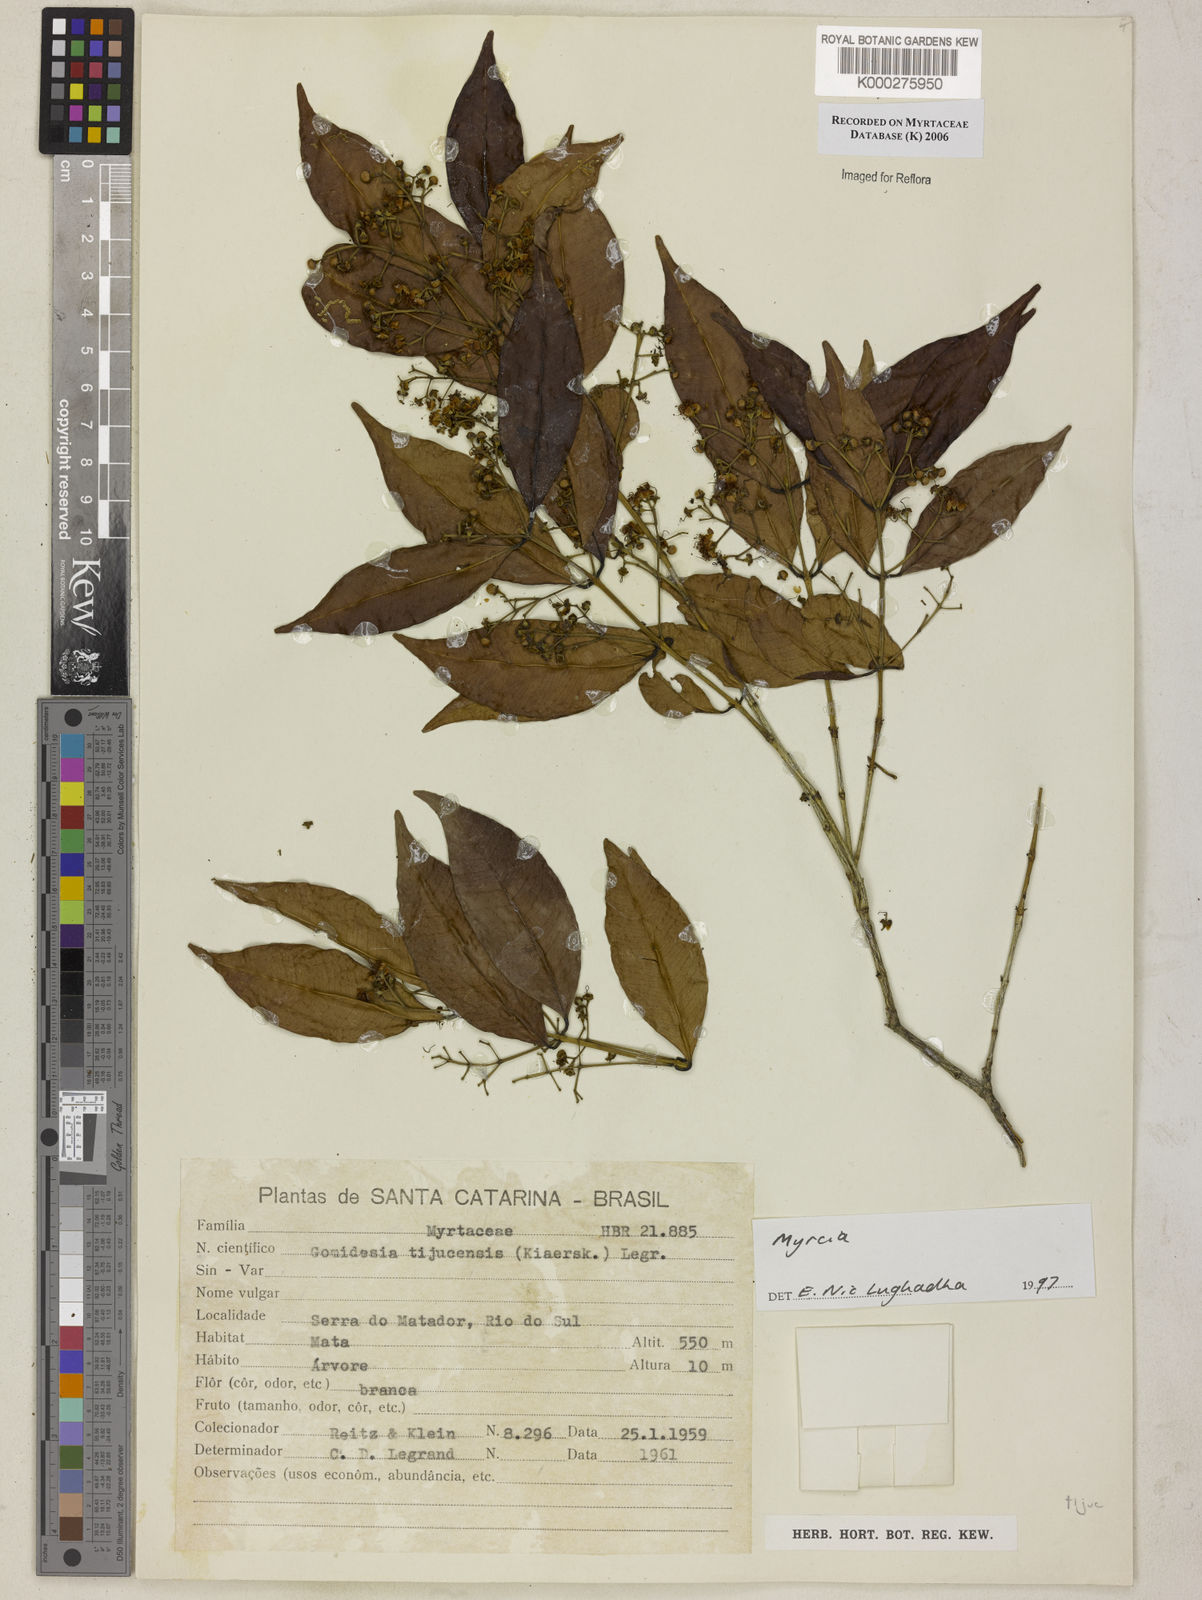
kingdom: Plantae
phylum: Tracheophyta
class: Magnoliopsida
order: Myrtales
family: Myrtaceae
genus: Myrcia
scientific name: Myrcia
